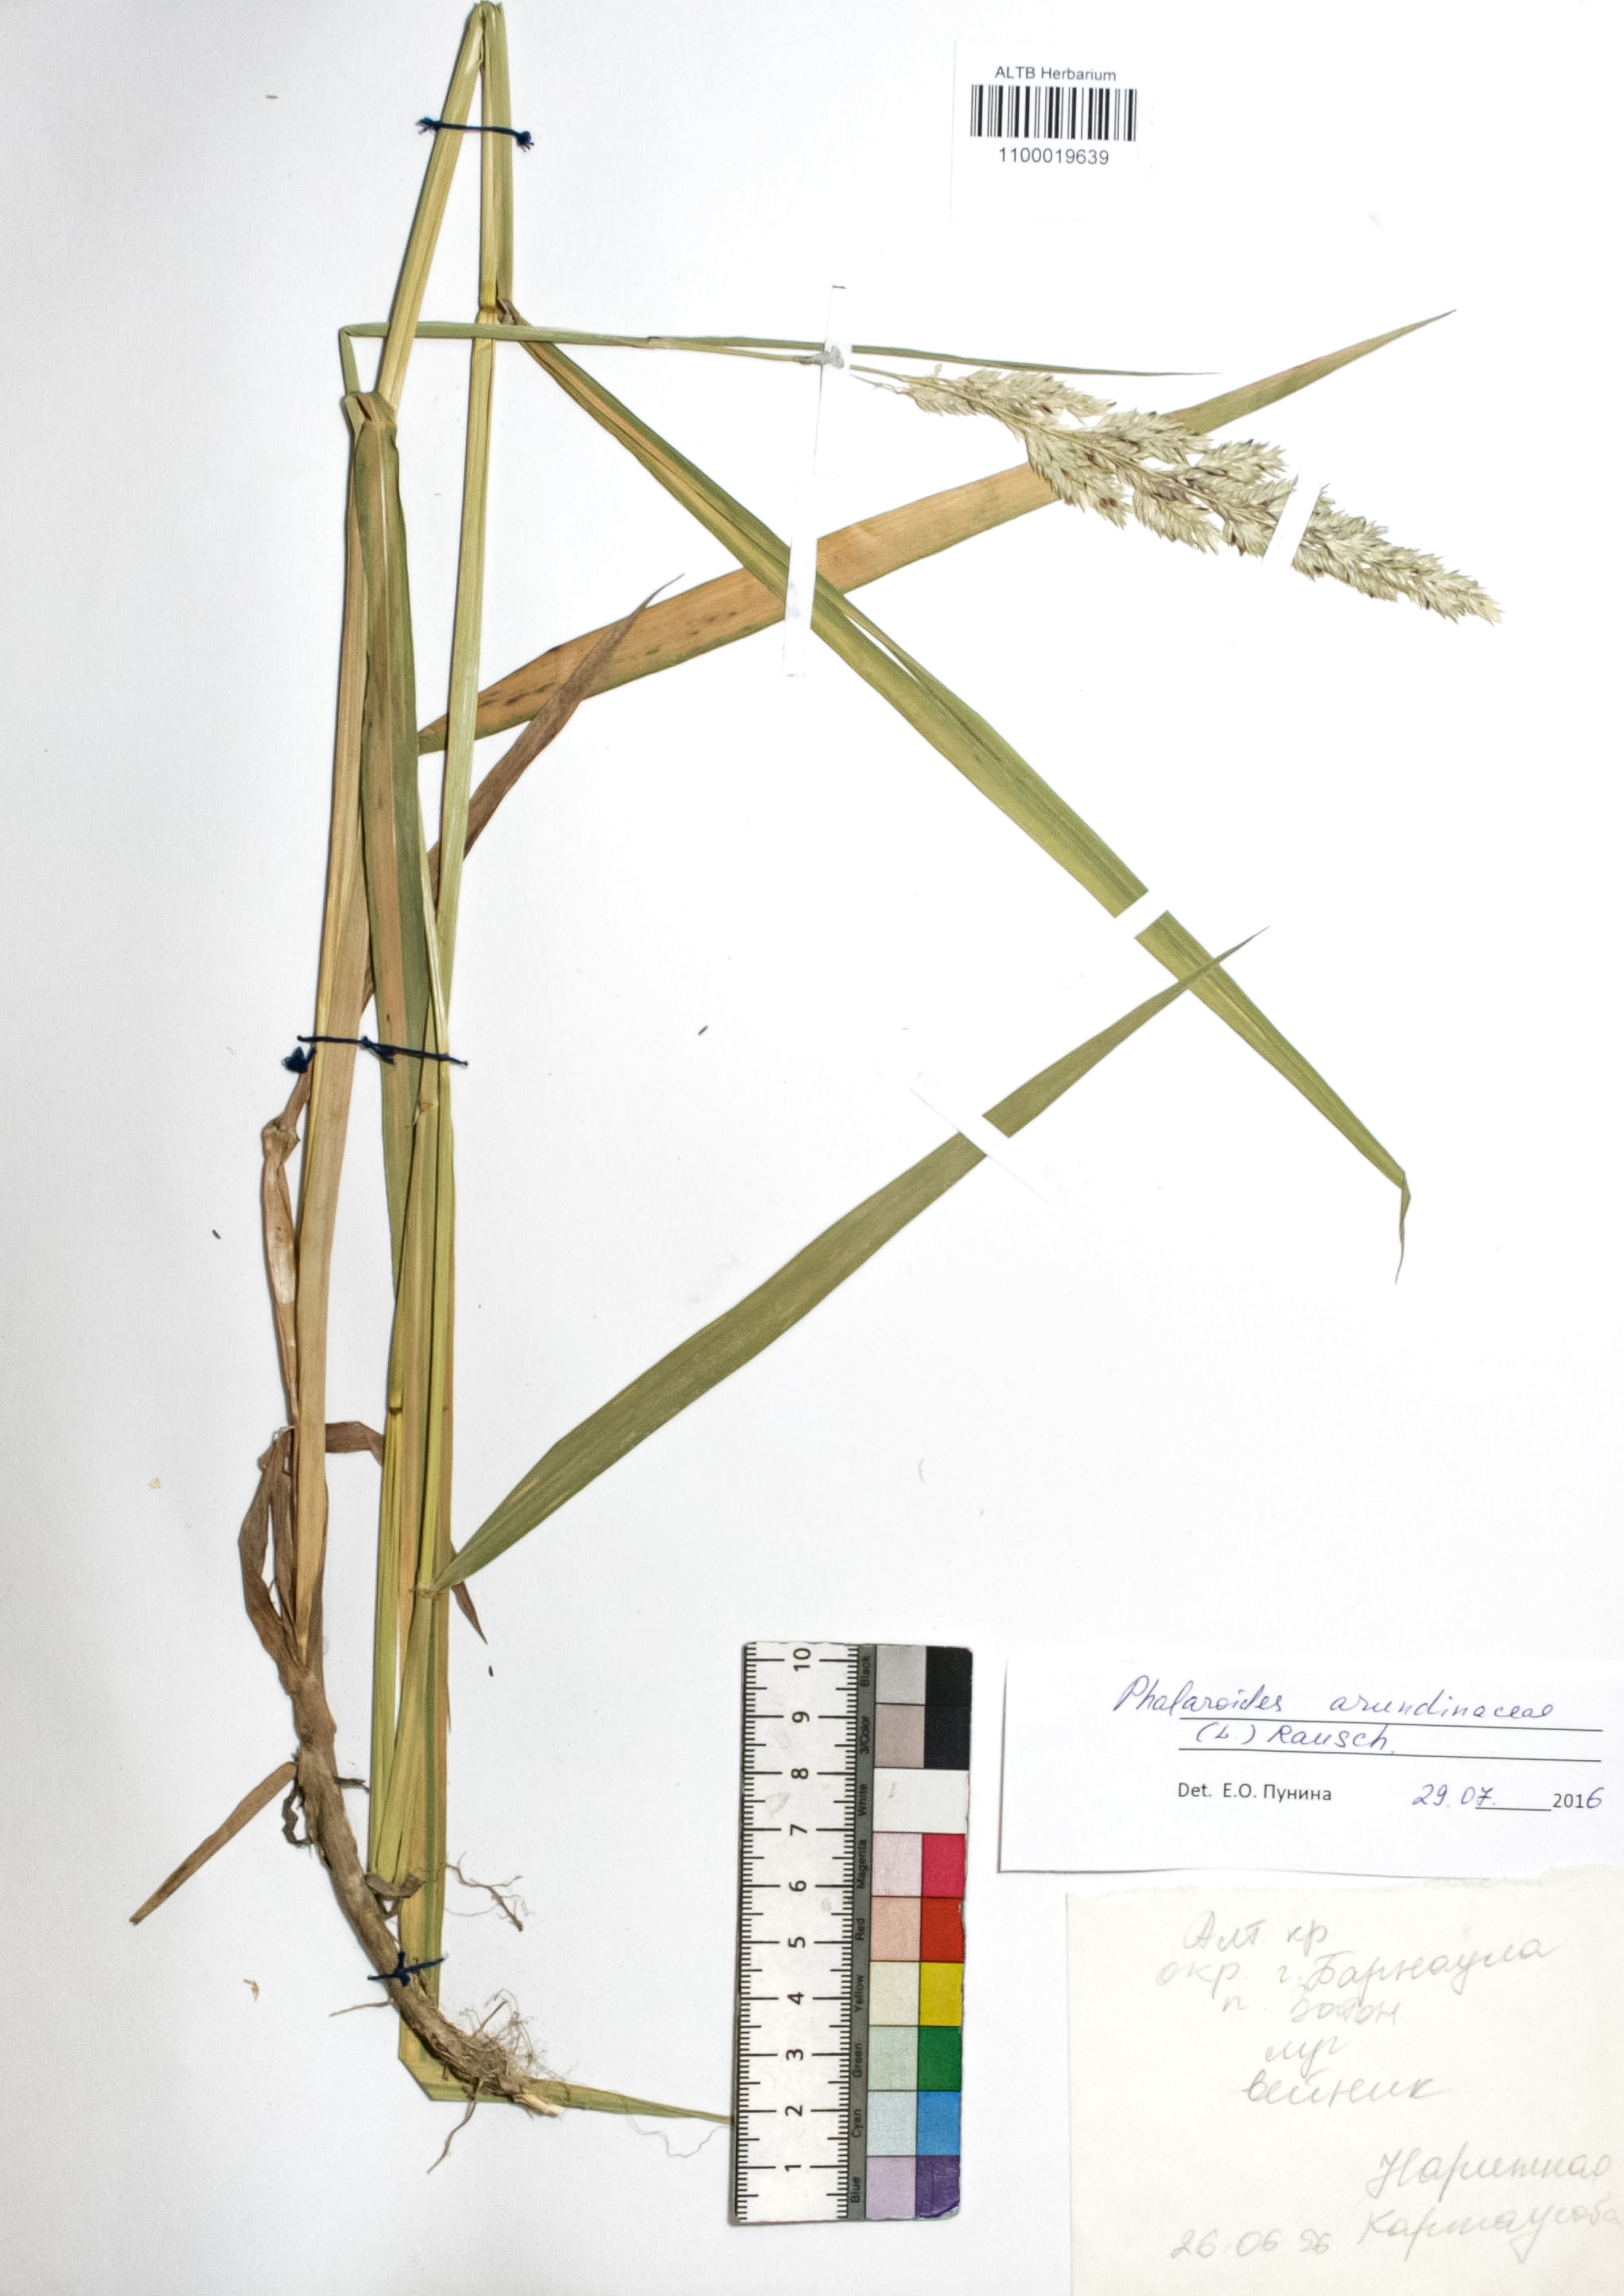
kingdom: Plantae
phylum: Tracheophyta
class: Liliopsida
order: Poales
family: Poaceae
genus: Phalaris
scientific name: Phalaris arundinacea
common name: Reed canary-grass
